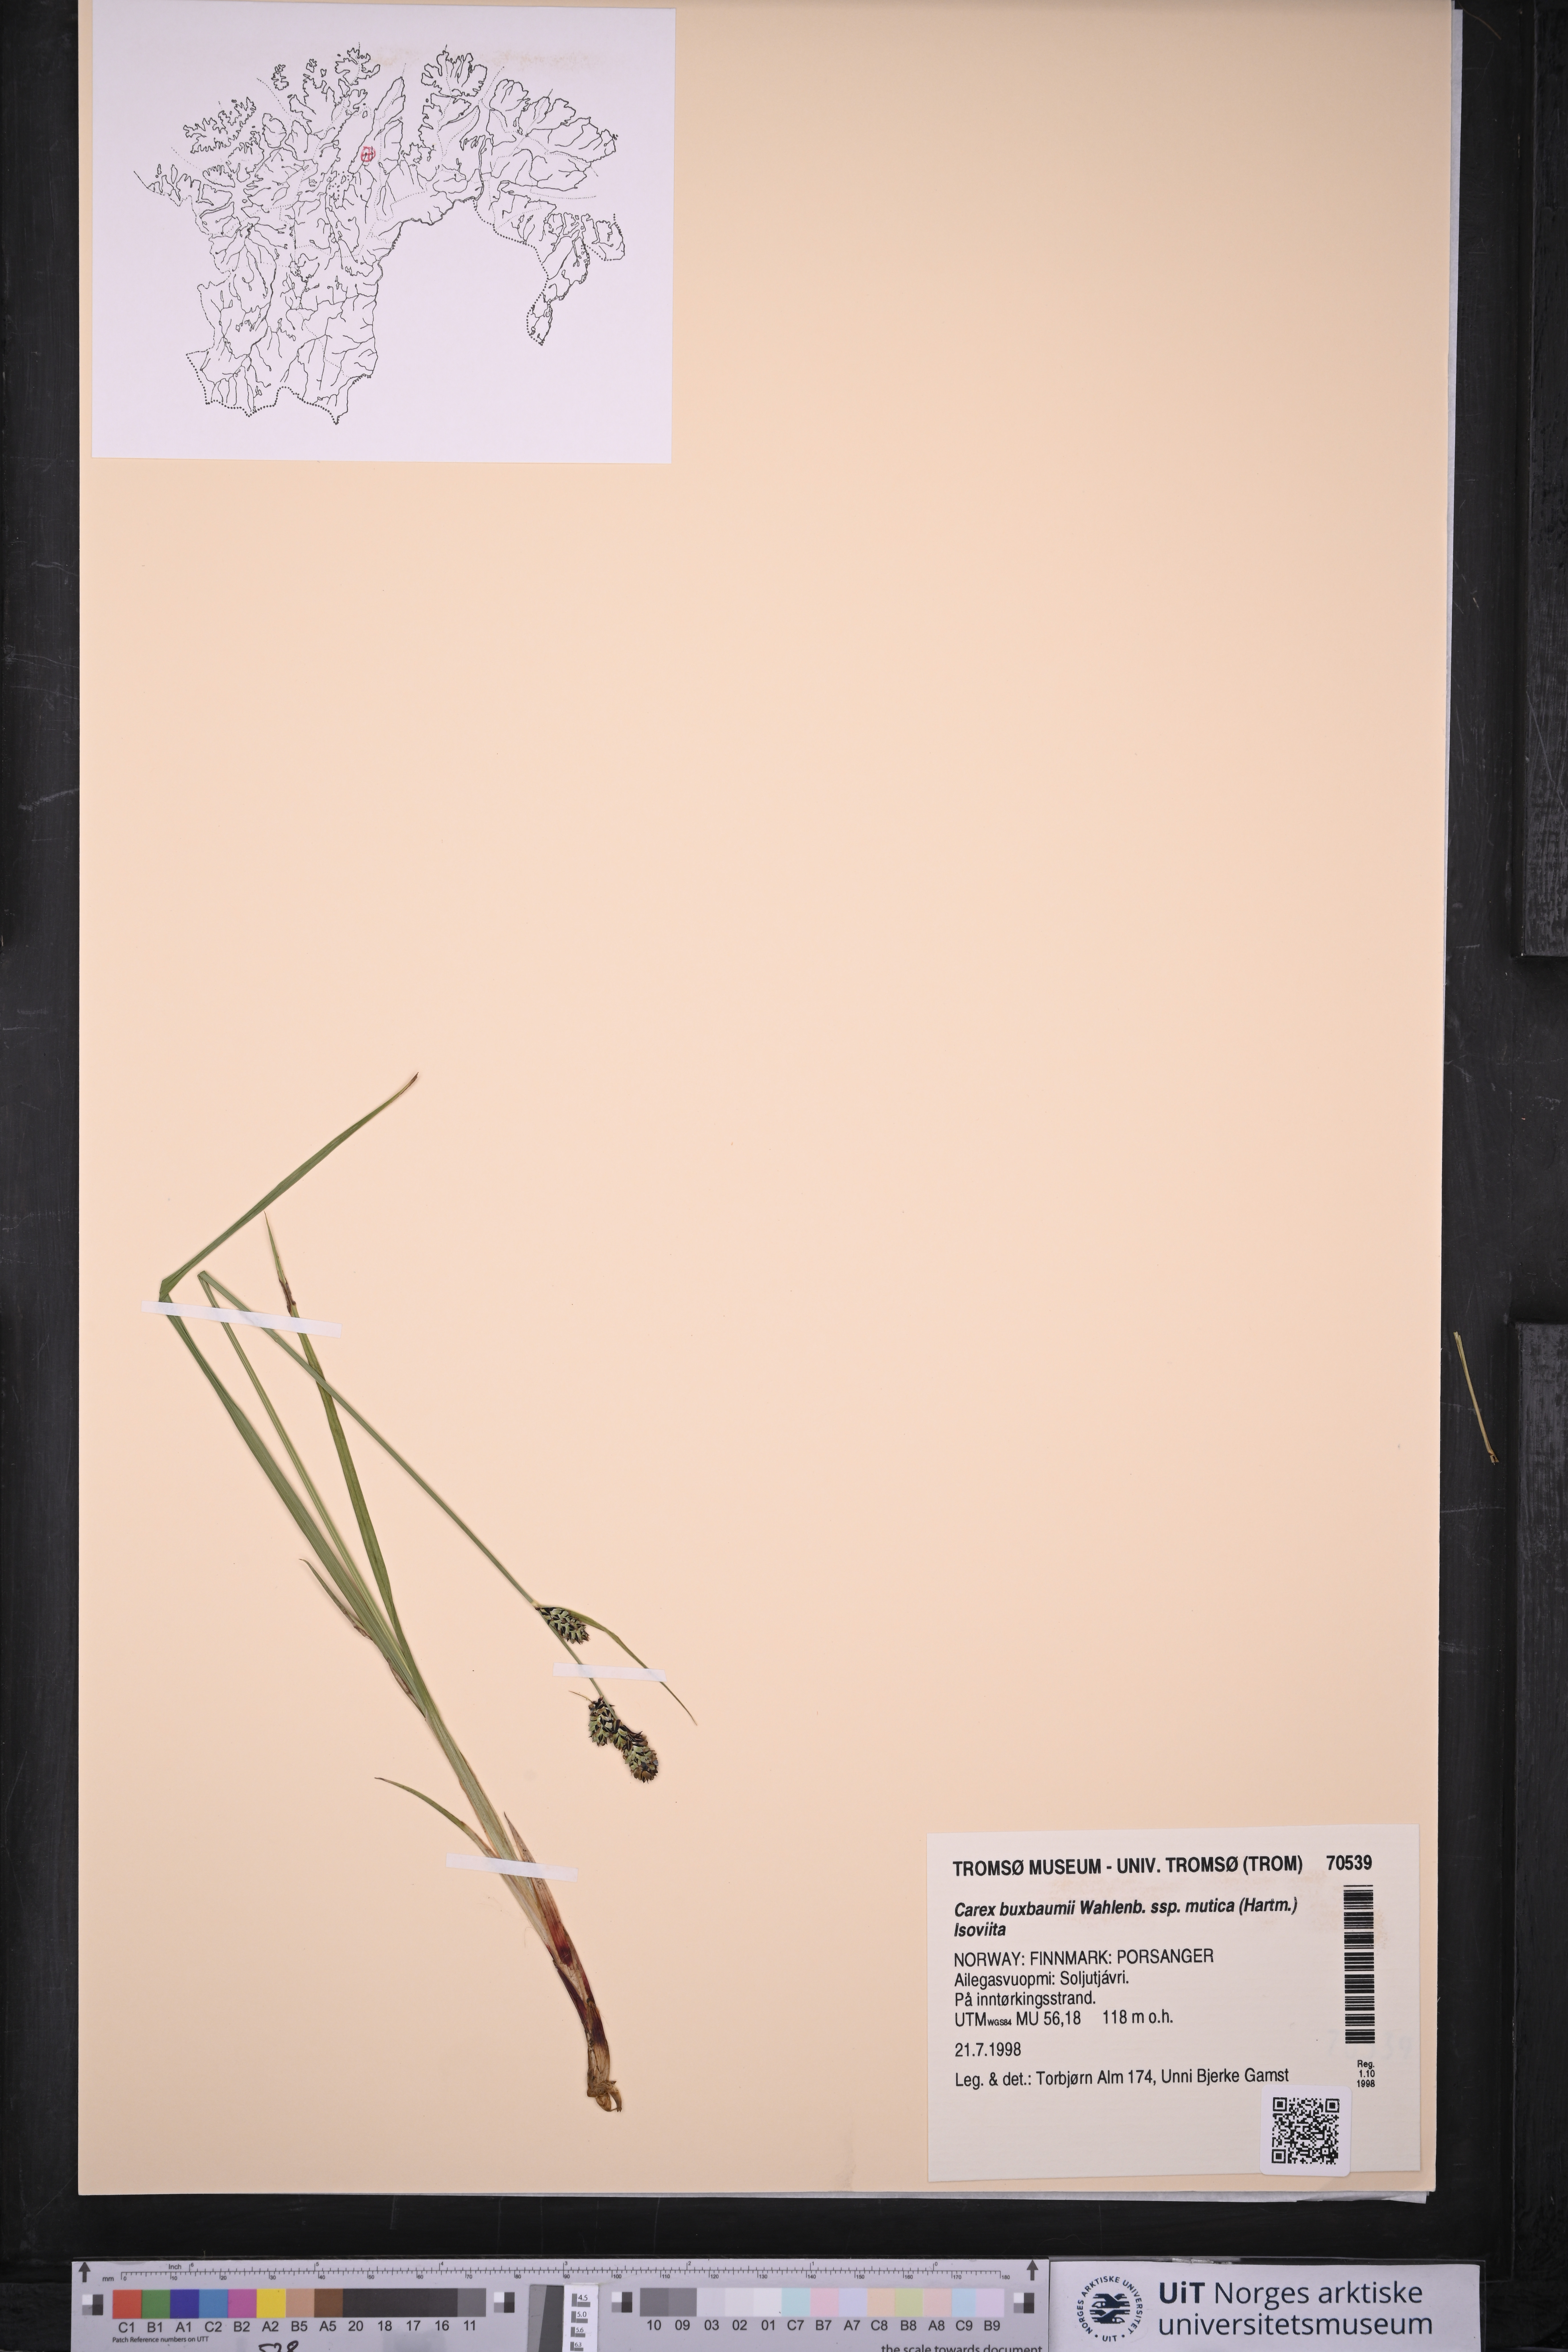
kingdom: Plantae
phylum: Tracheophyta
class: Liliopsida
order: Poales
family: Cyperaceae
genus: Carex
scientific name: Carex adelostoma
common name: Circumpolar sedge
